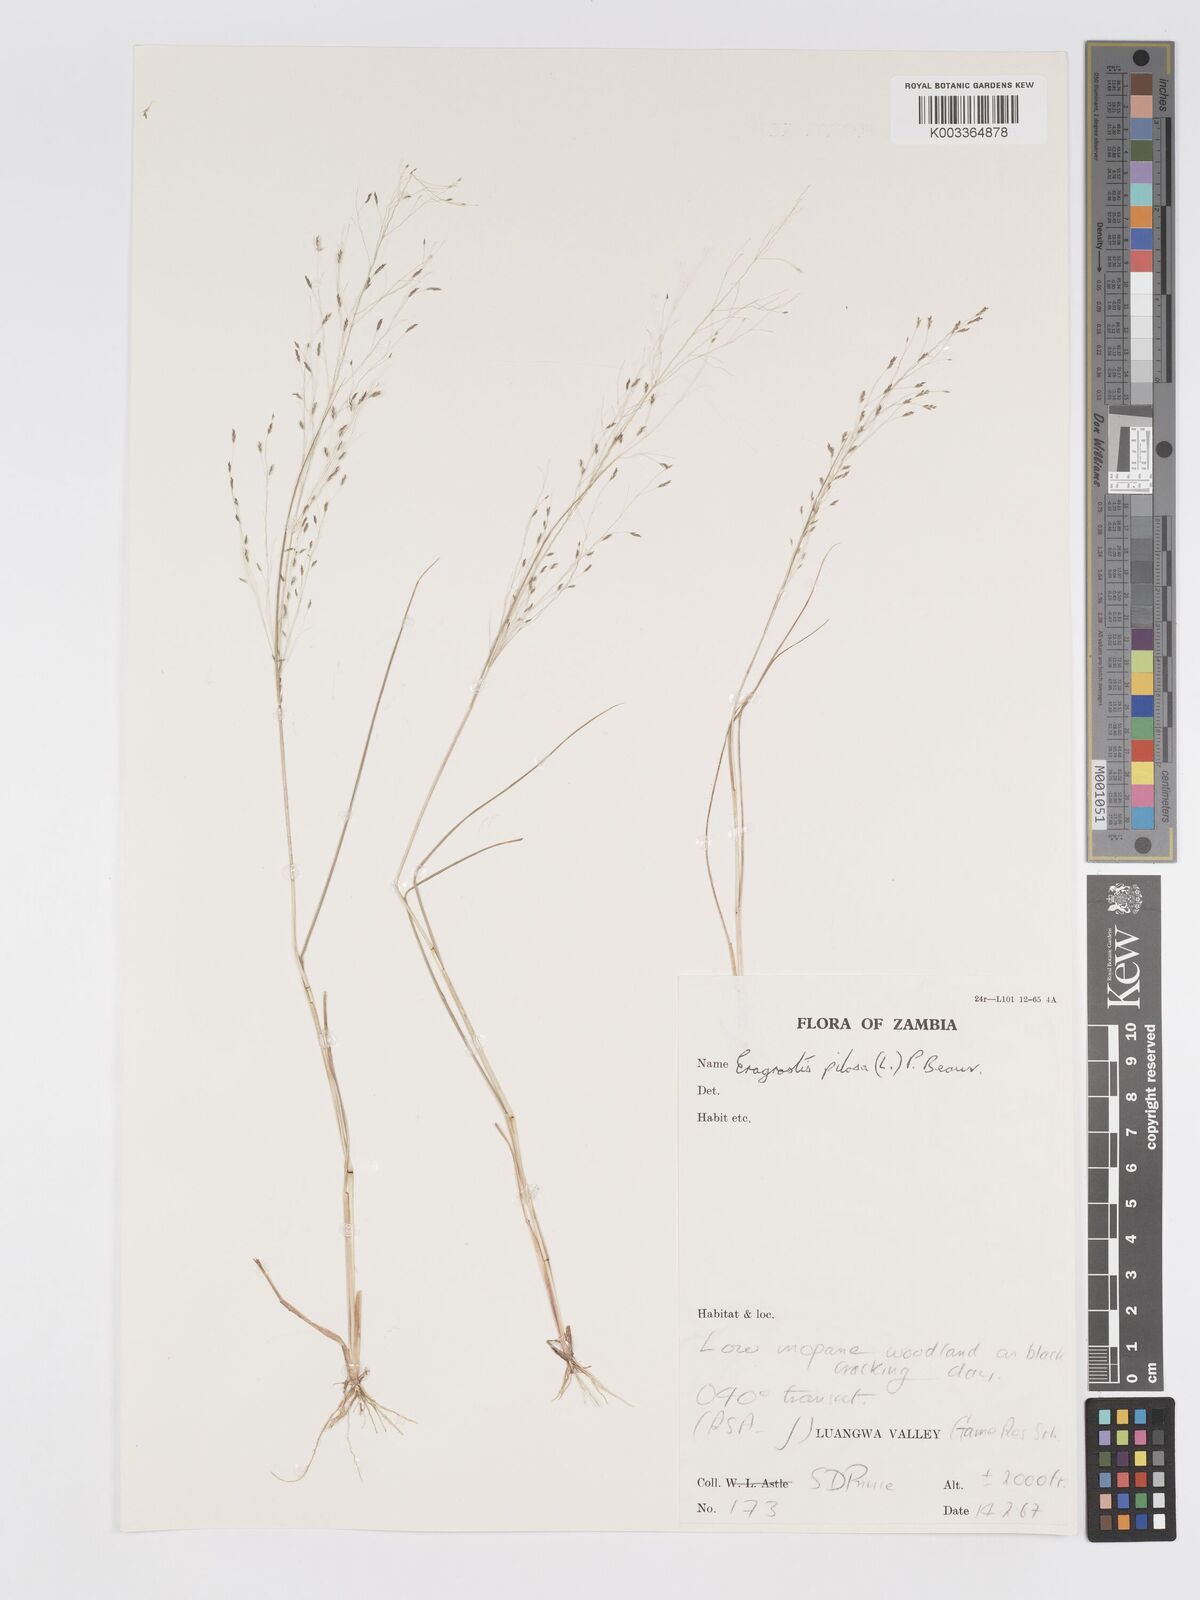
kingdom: Plantae
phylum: Tracheophyta
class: Liliopsida
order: Poales
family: Poaceae
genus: Eragrostis
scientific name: Eragrostis pilosa
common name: Indian lovegrass
